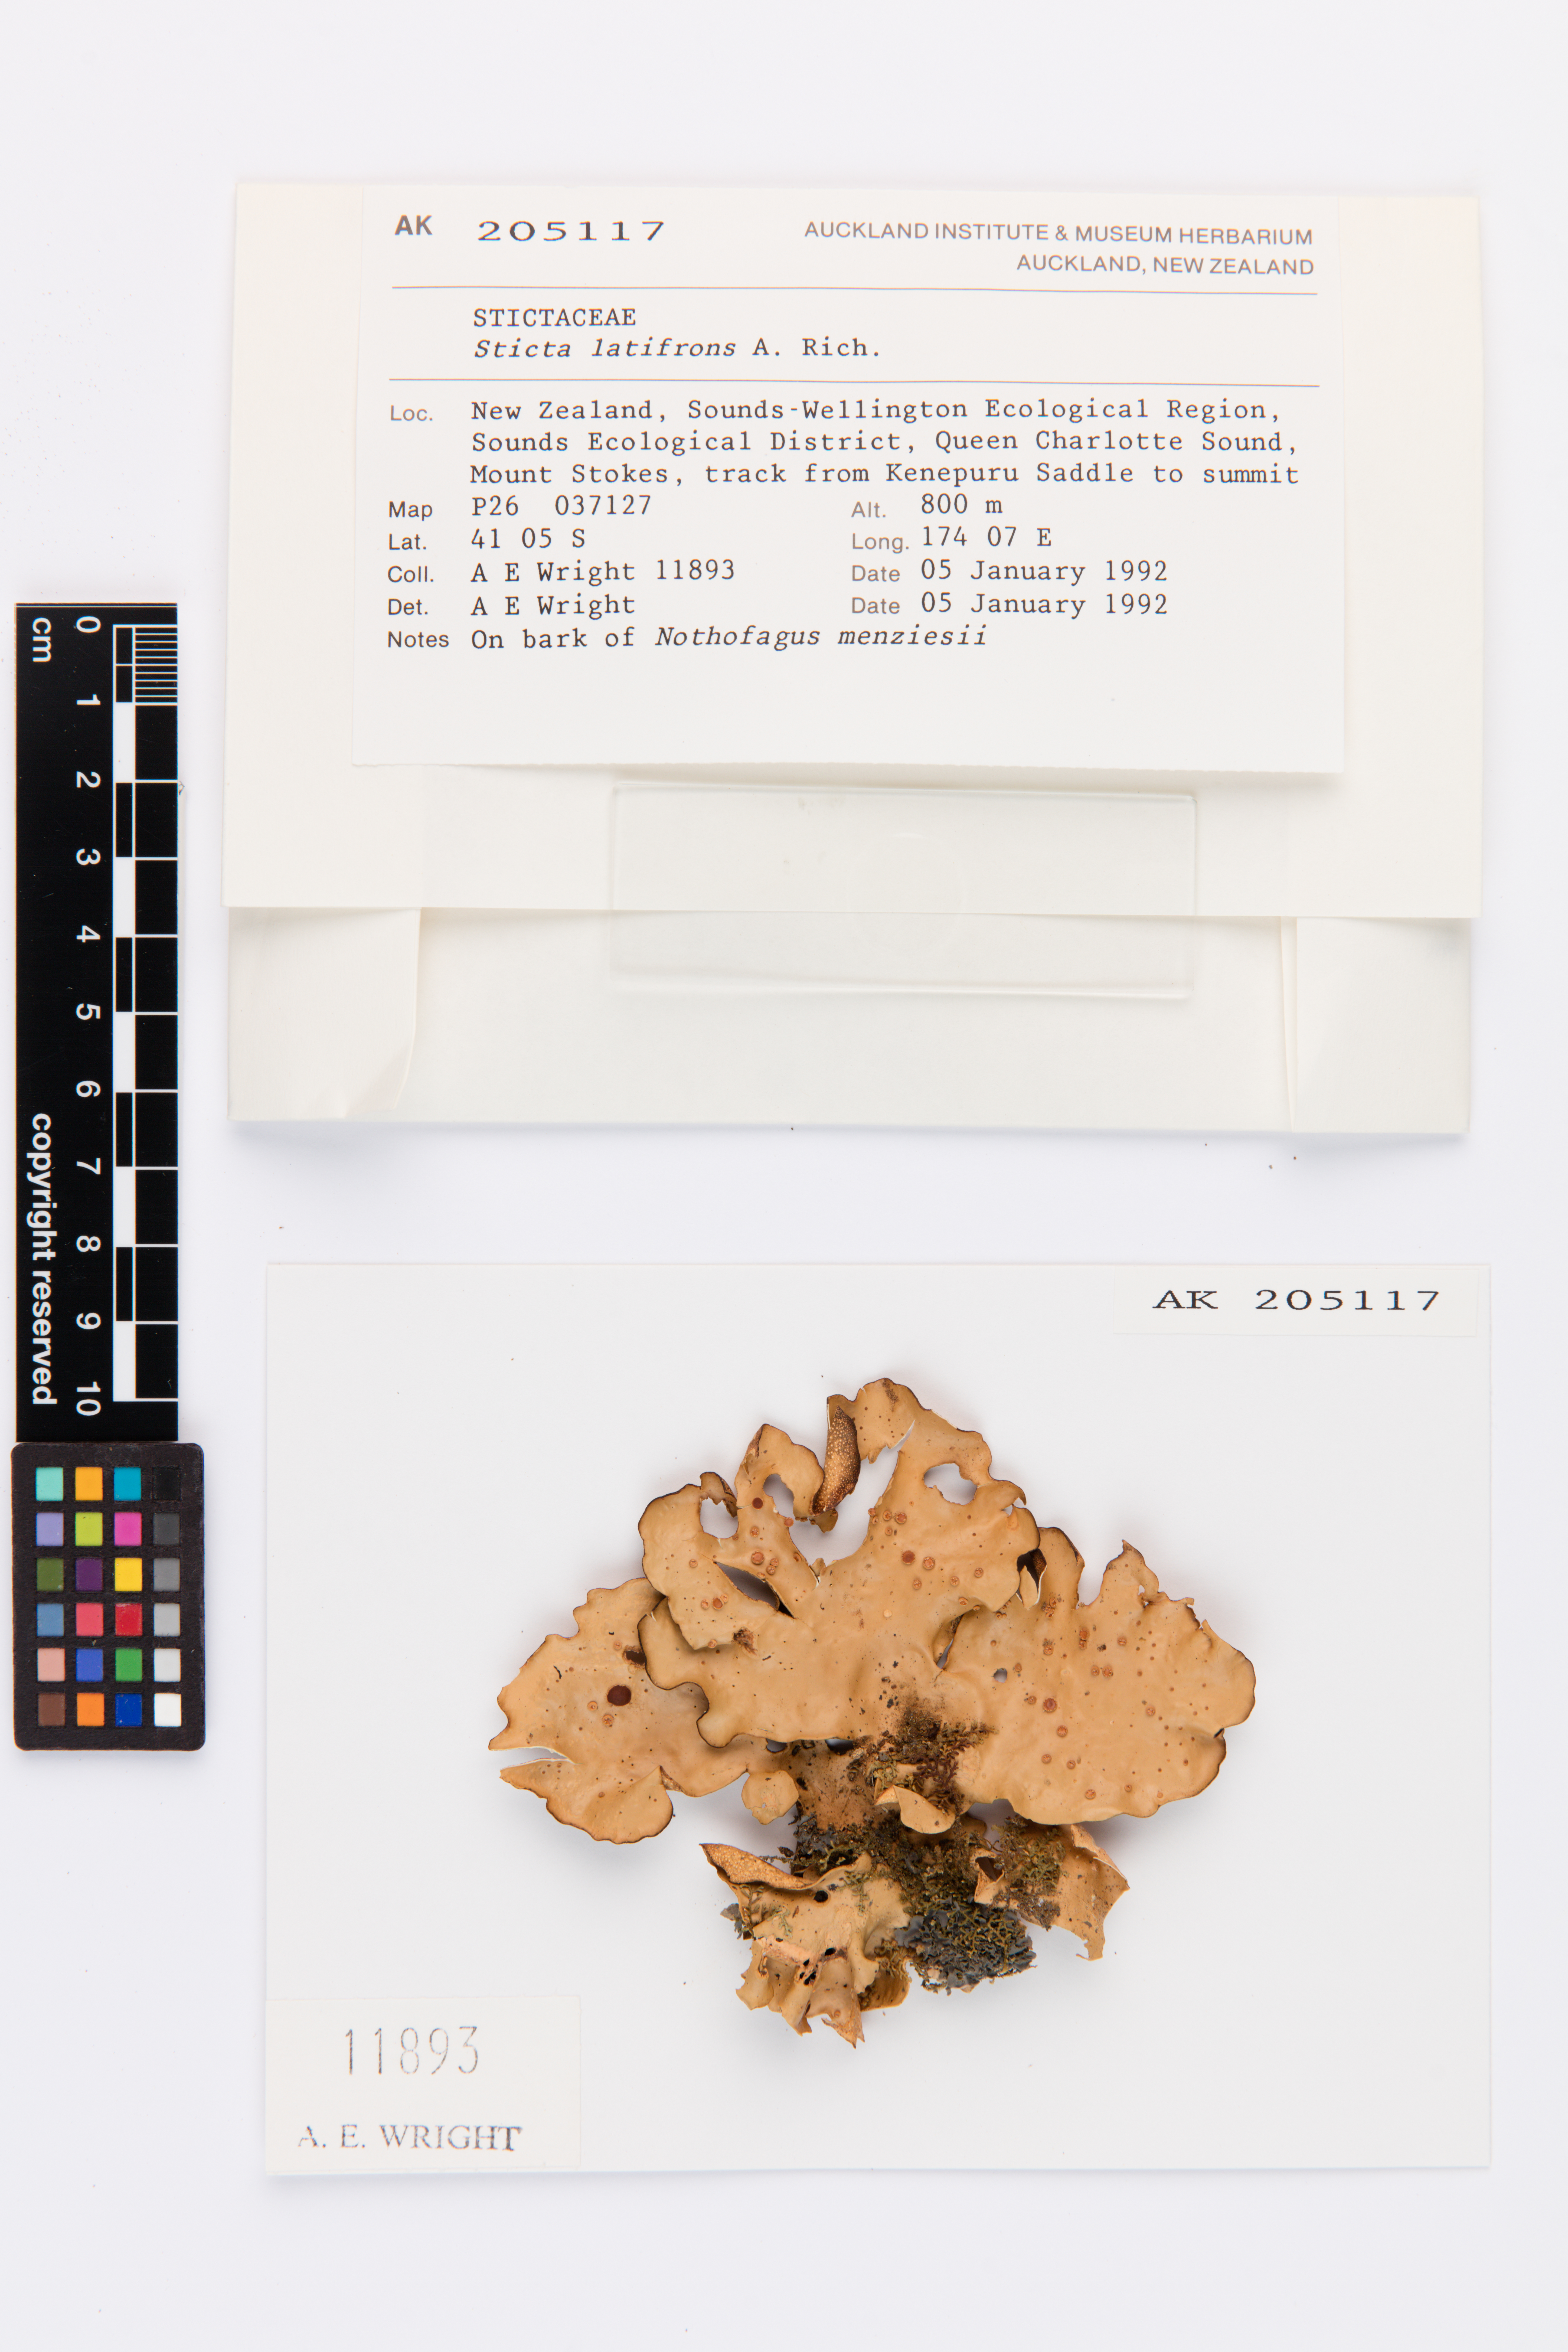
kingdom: Fungi
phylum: Ascomycota
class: Lecanoromycetes
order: Peltigerales
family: Lobariaceae
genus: Sticta
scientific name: Sticta latifrons
